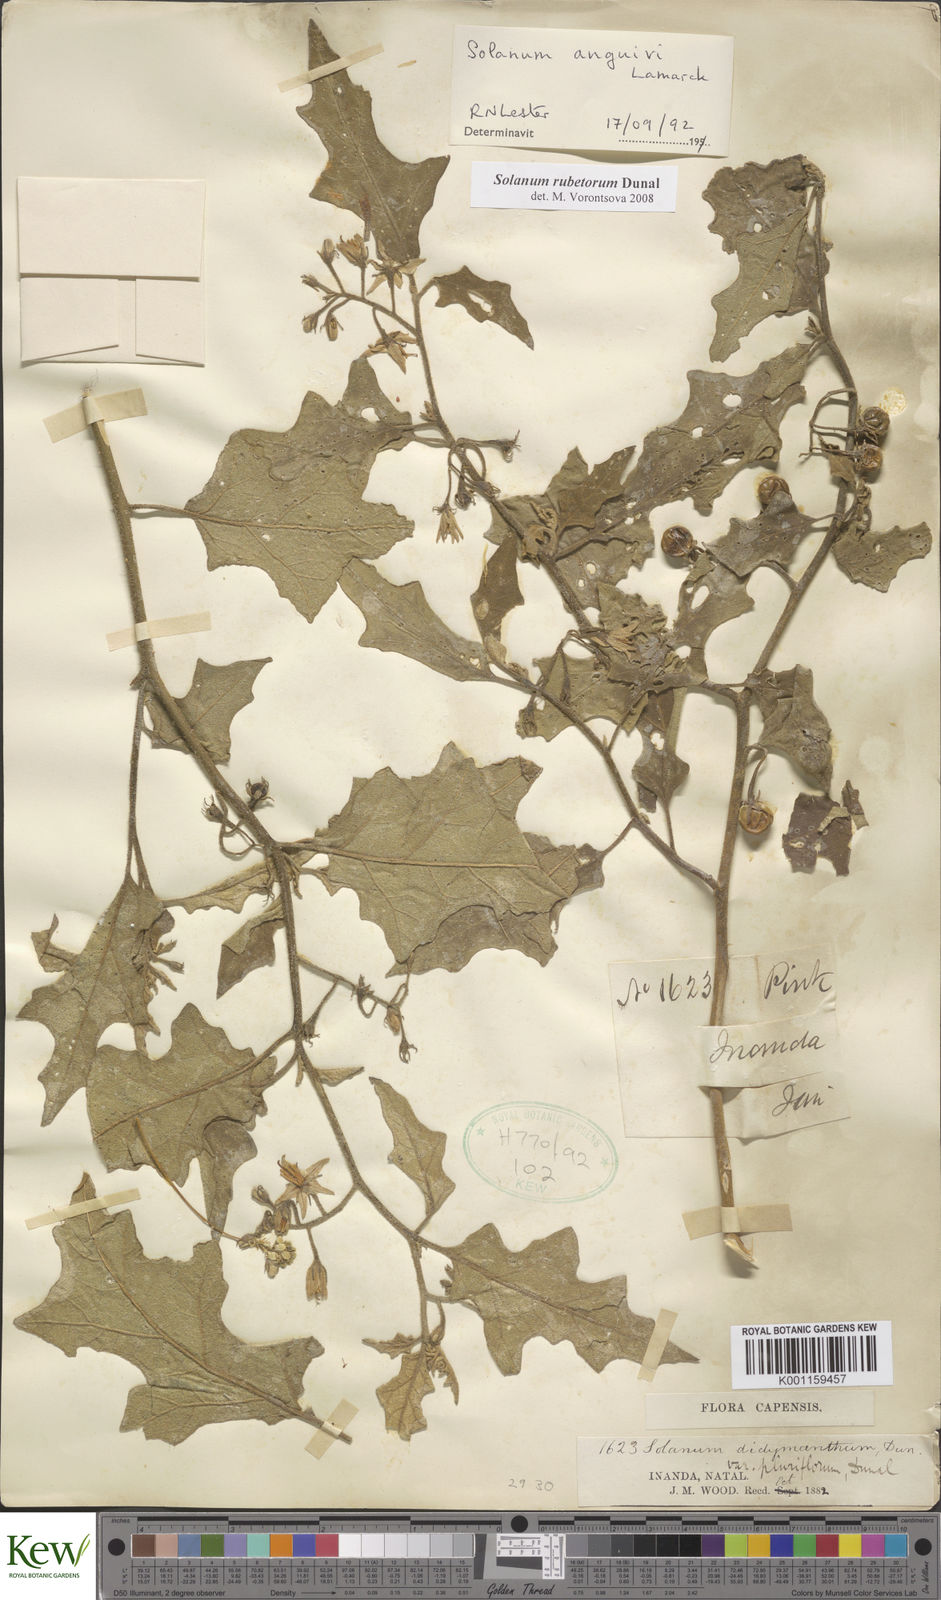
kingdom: Plantae
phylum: Tracheophyta
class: Magnoliopsida
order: Solanales
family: Solanaceae
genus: Solanum
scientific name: Solanum rubetorum
